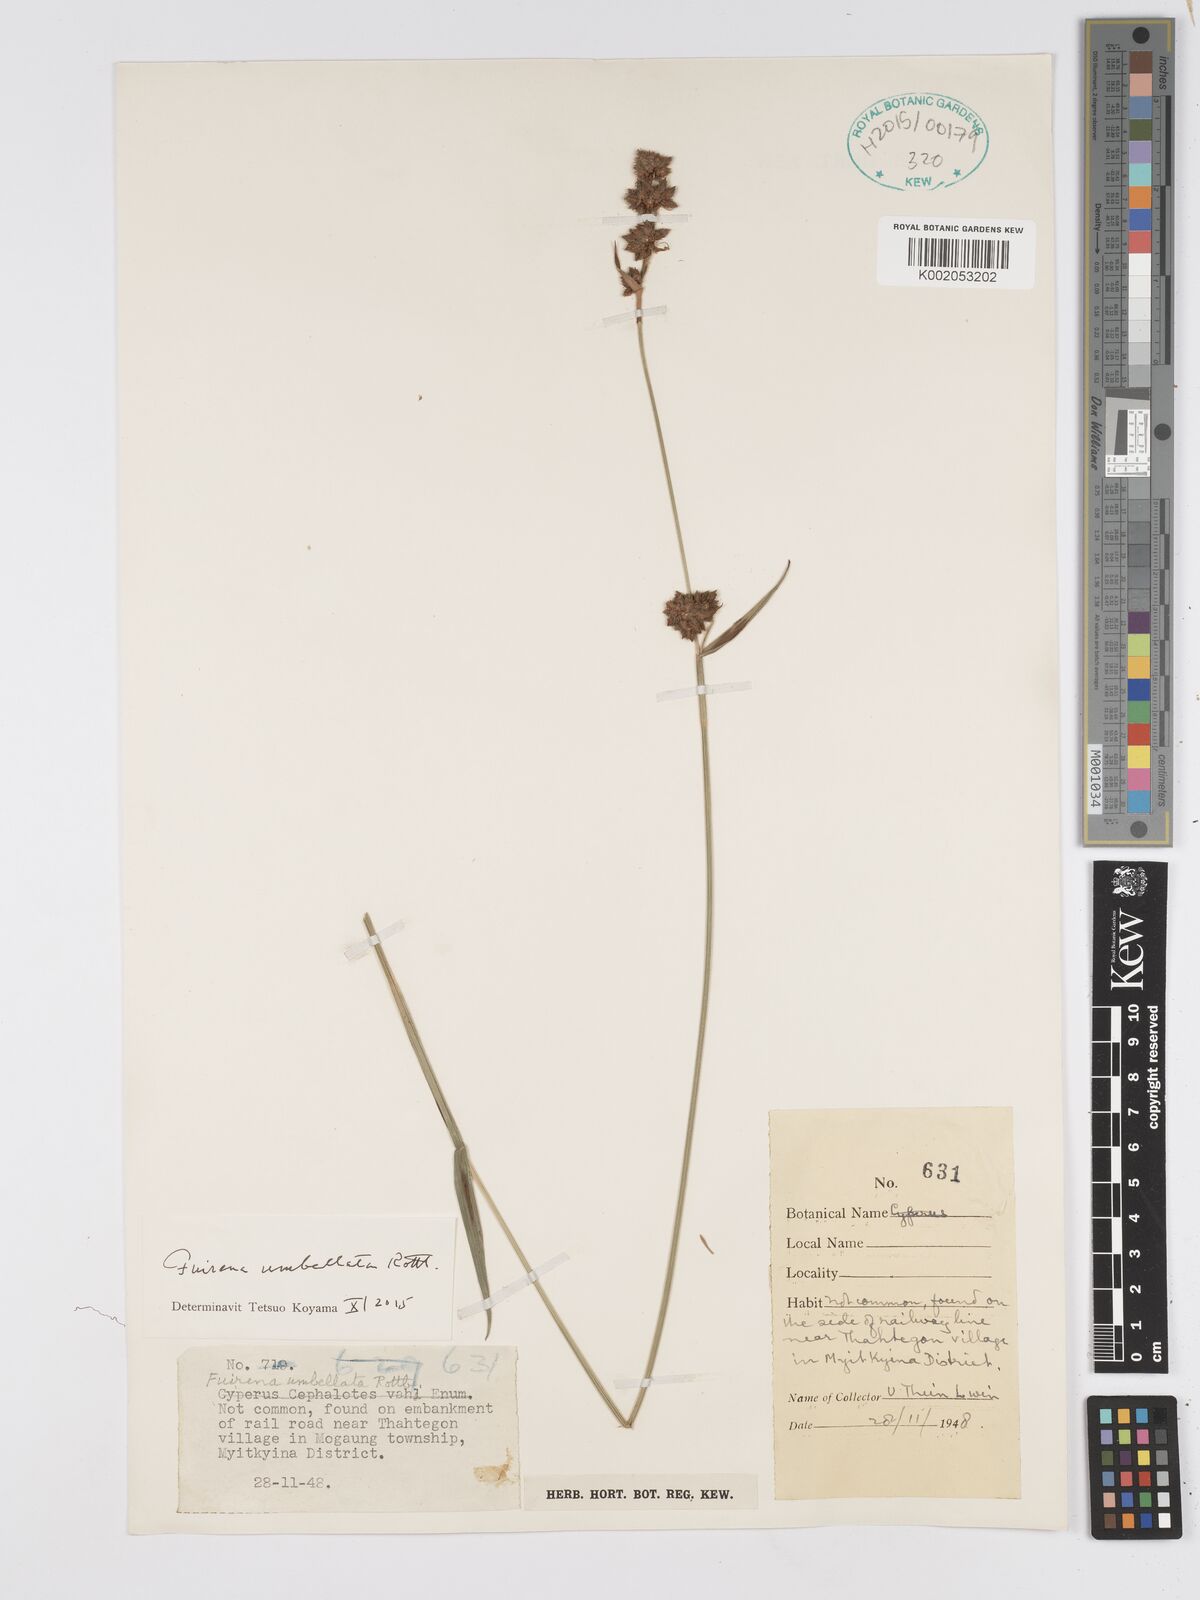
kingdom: Plantae
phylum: Tracheophyta
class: Liliopsida
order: Poales
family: Cyperaceae
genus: Fuirena
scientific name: Fuirena umbellata
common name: Yefen
